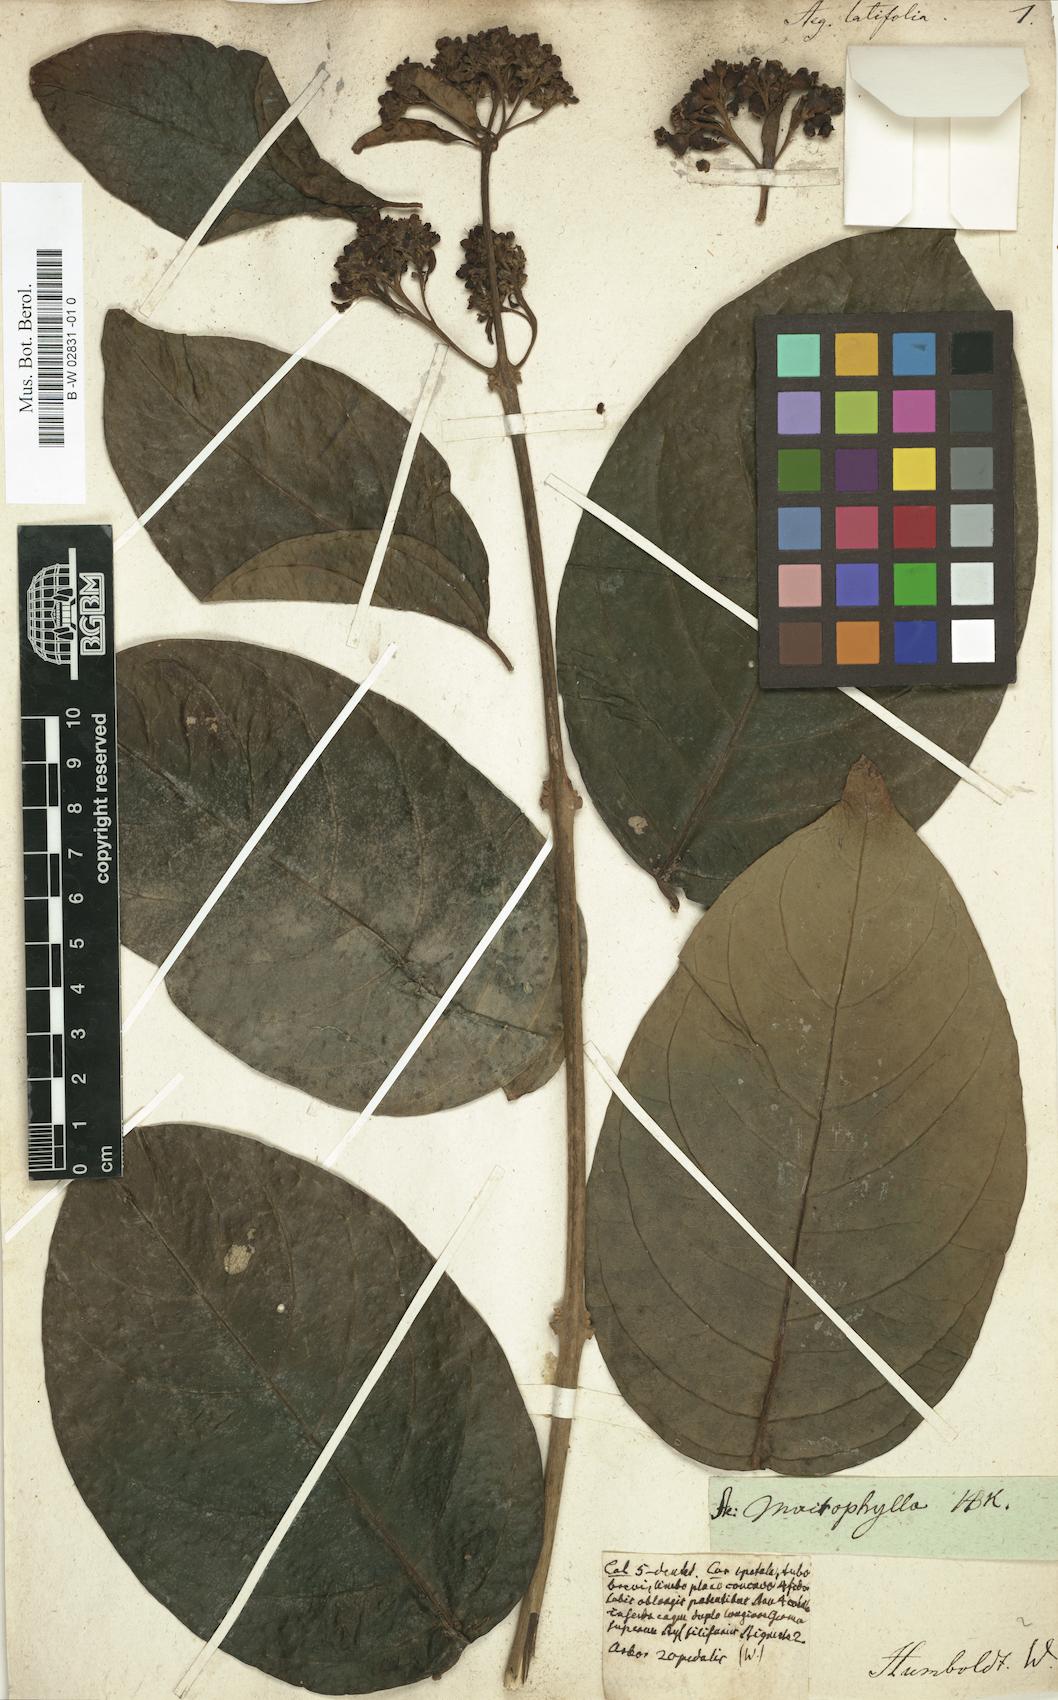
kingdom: Plantae
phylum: Tracheophyta
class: Magnoliopsida
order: Lamiales
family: Lamiaceae
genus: Aegiphila
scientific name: Aegiphila elata
